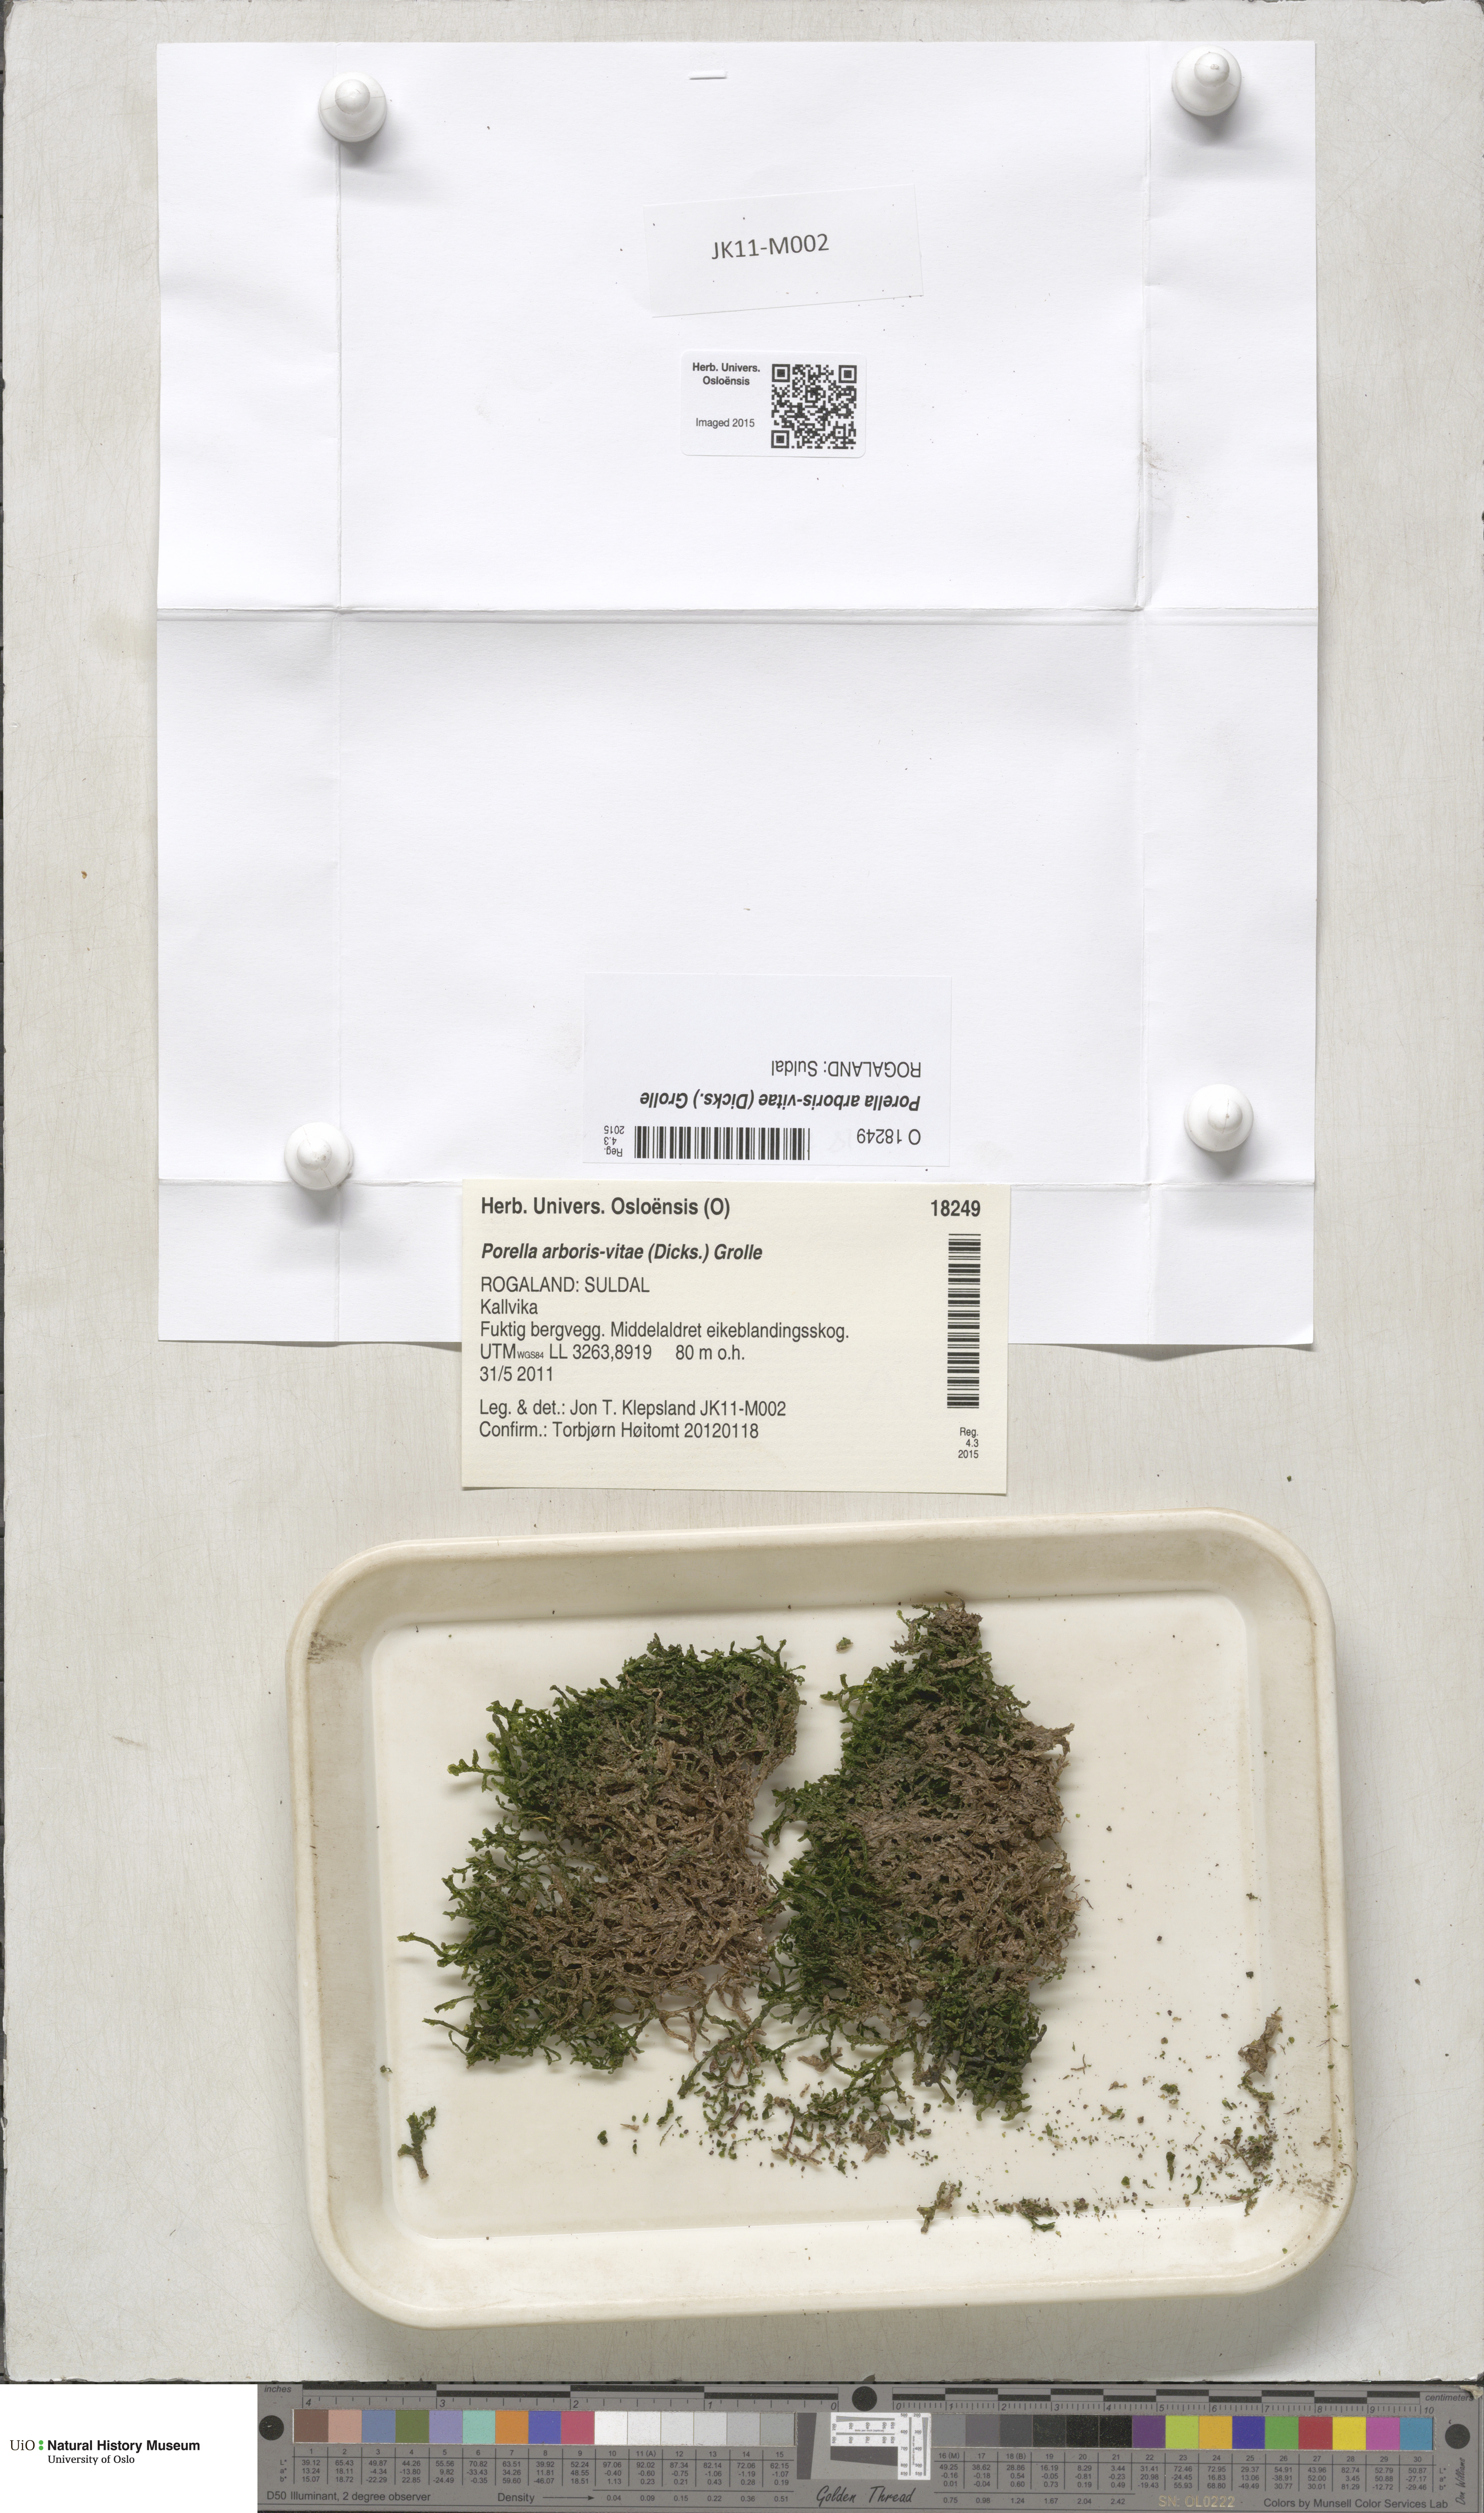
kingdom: Plantae
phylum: Marchantiophyta
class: Jungermanniopsida
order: Porellales
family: Porellaceae
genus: Porella
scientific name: Porella arboris-vitae
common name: Bitter scalewort
